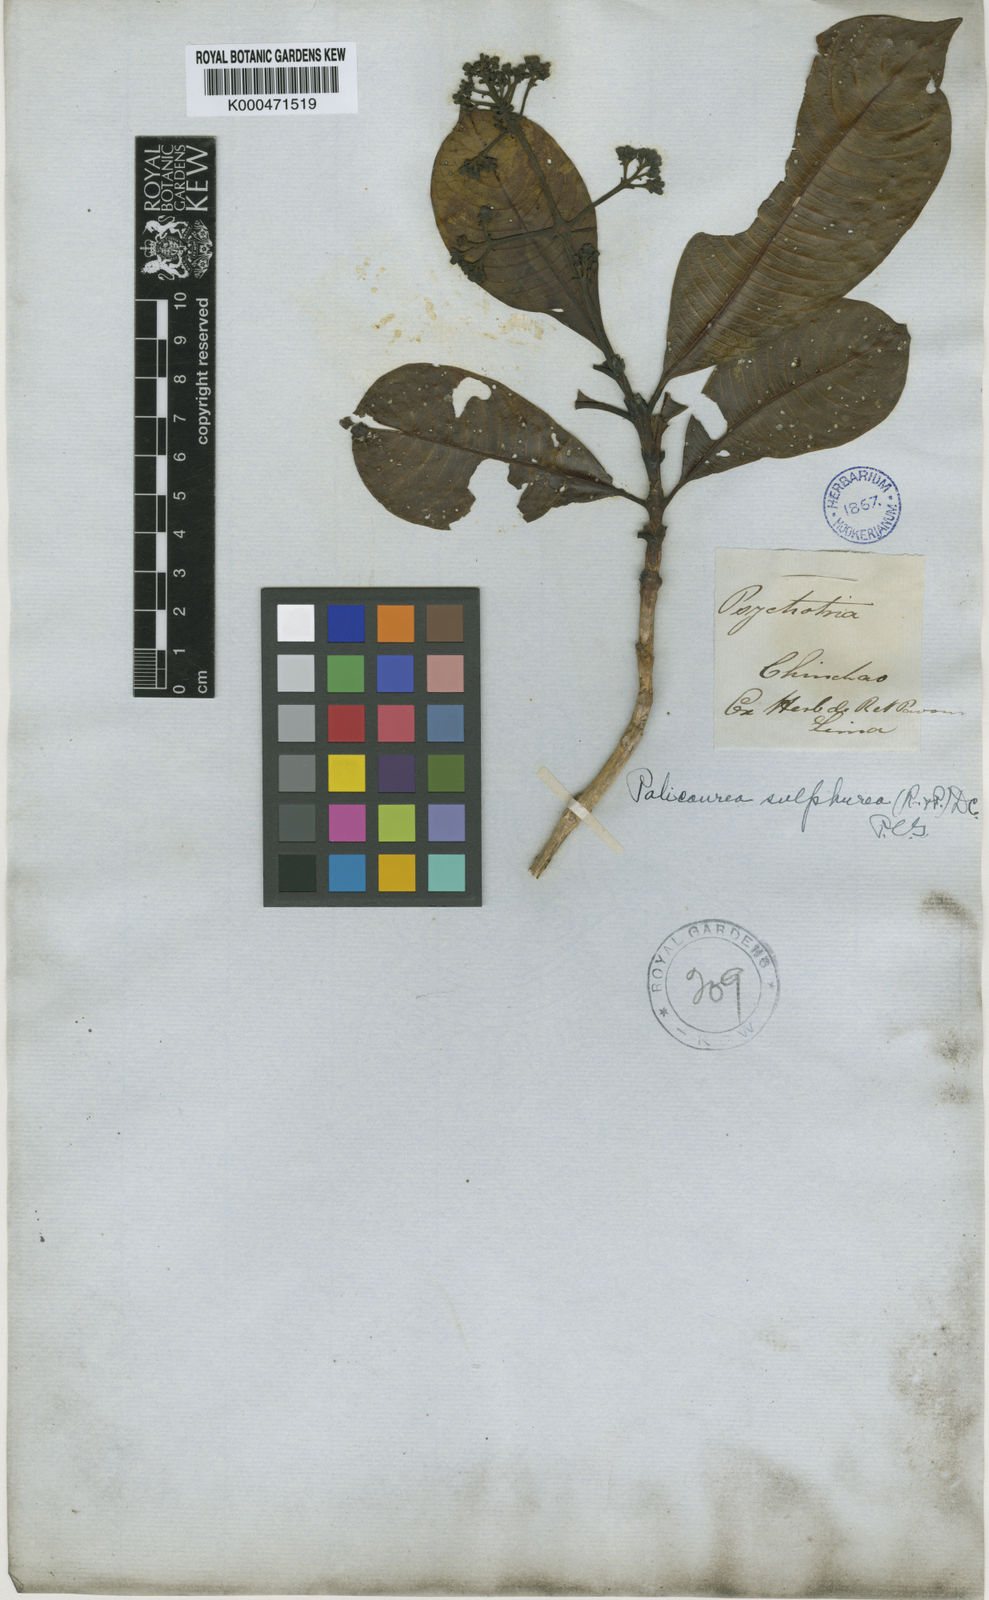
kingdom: Plantae
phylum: Tracheophyta
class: Magnoliopsida
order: Gentianales
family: Rubiaceae
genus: Palicourea
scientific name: Palicourea sulphurea
